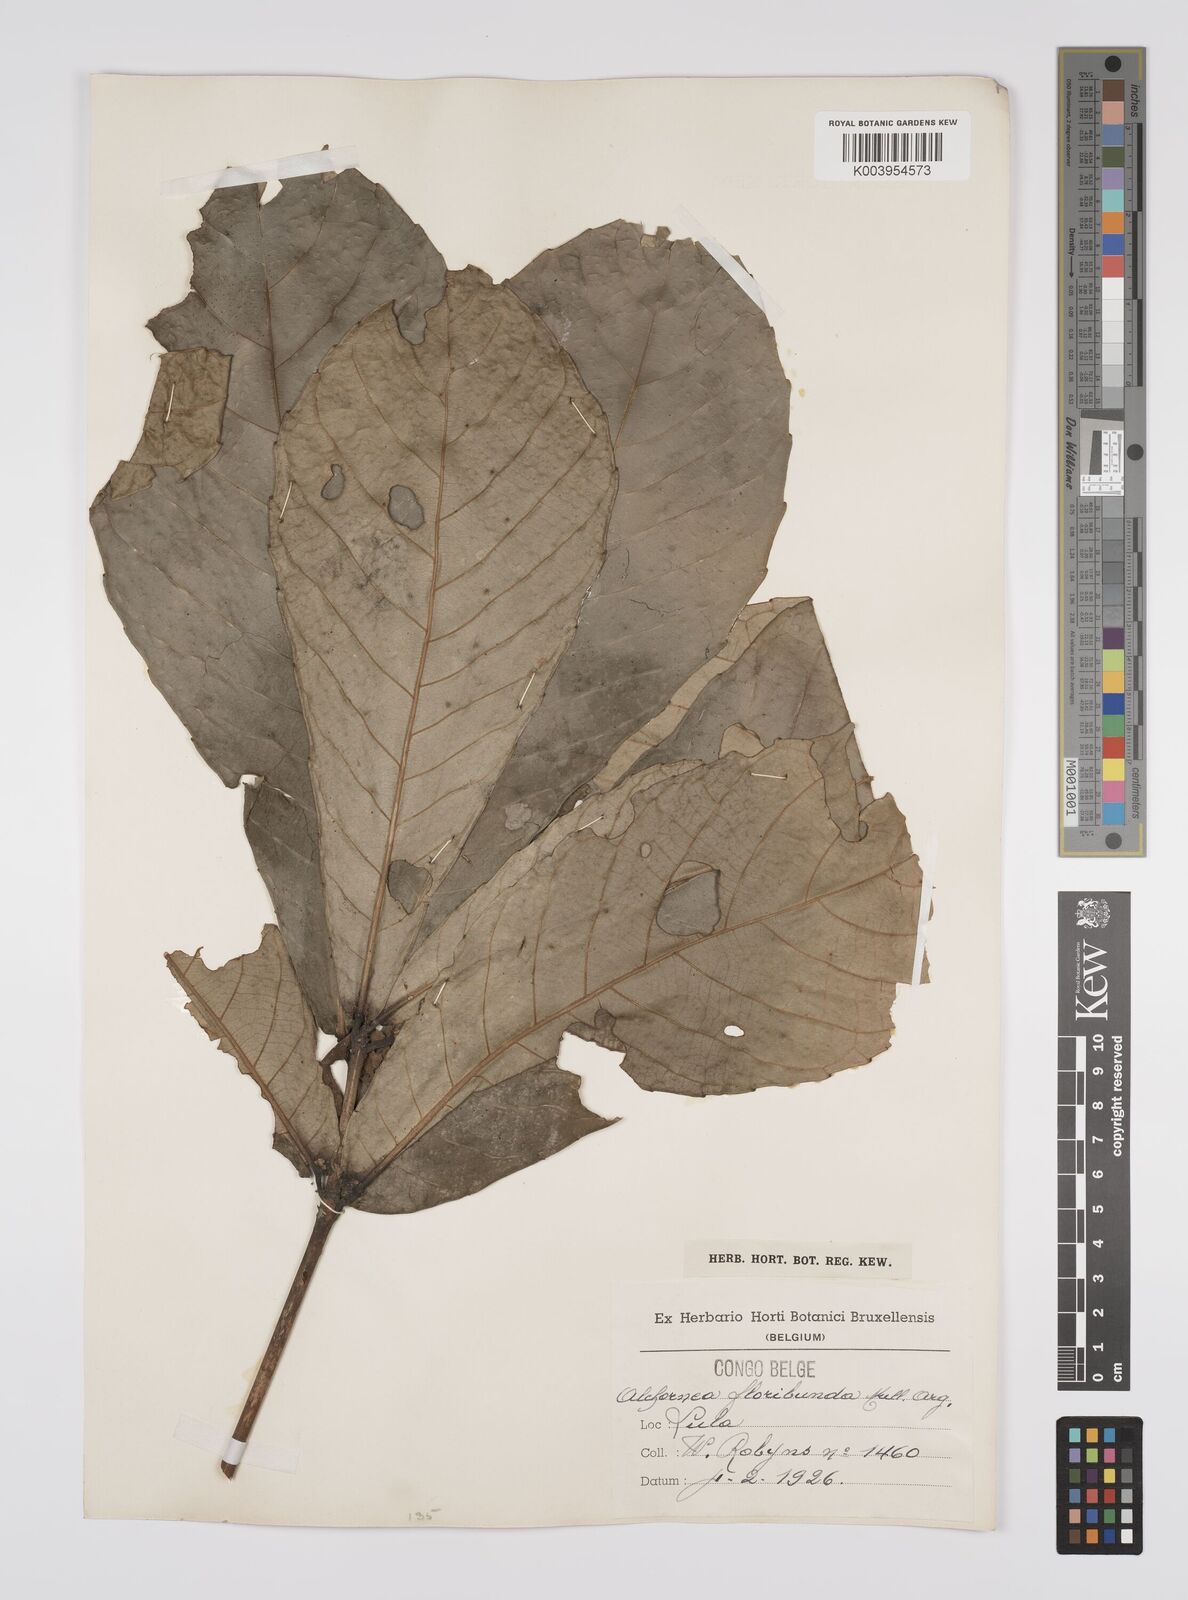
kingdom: Plantae
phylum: Tracheophyta
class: Magnoliopsida
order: Malpighiales
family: Euphorbiaceae
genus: Alchornea
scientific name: Alchornea floribunda
